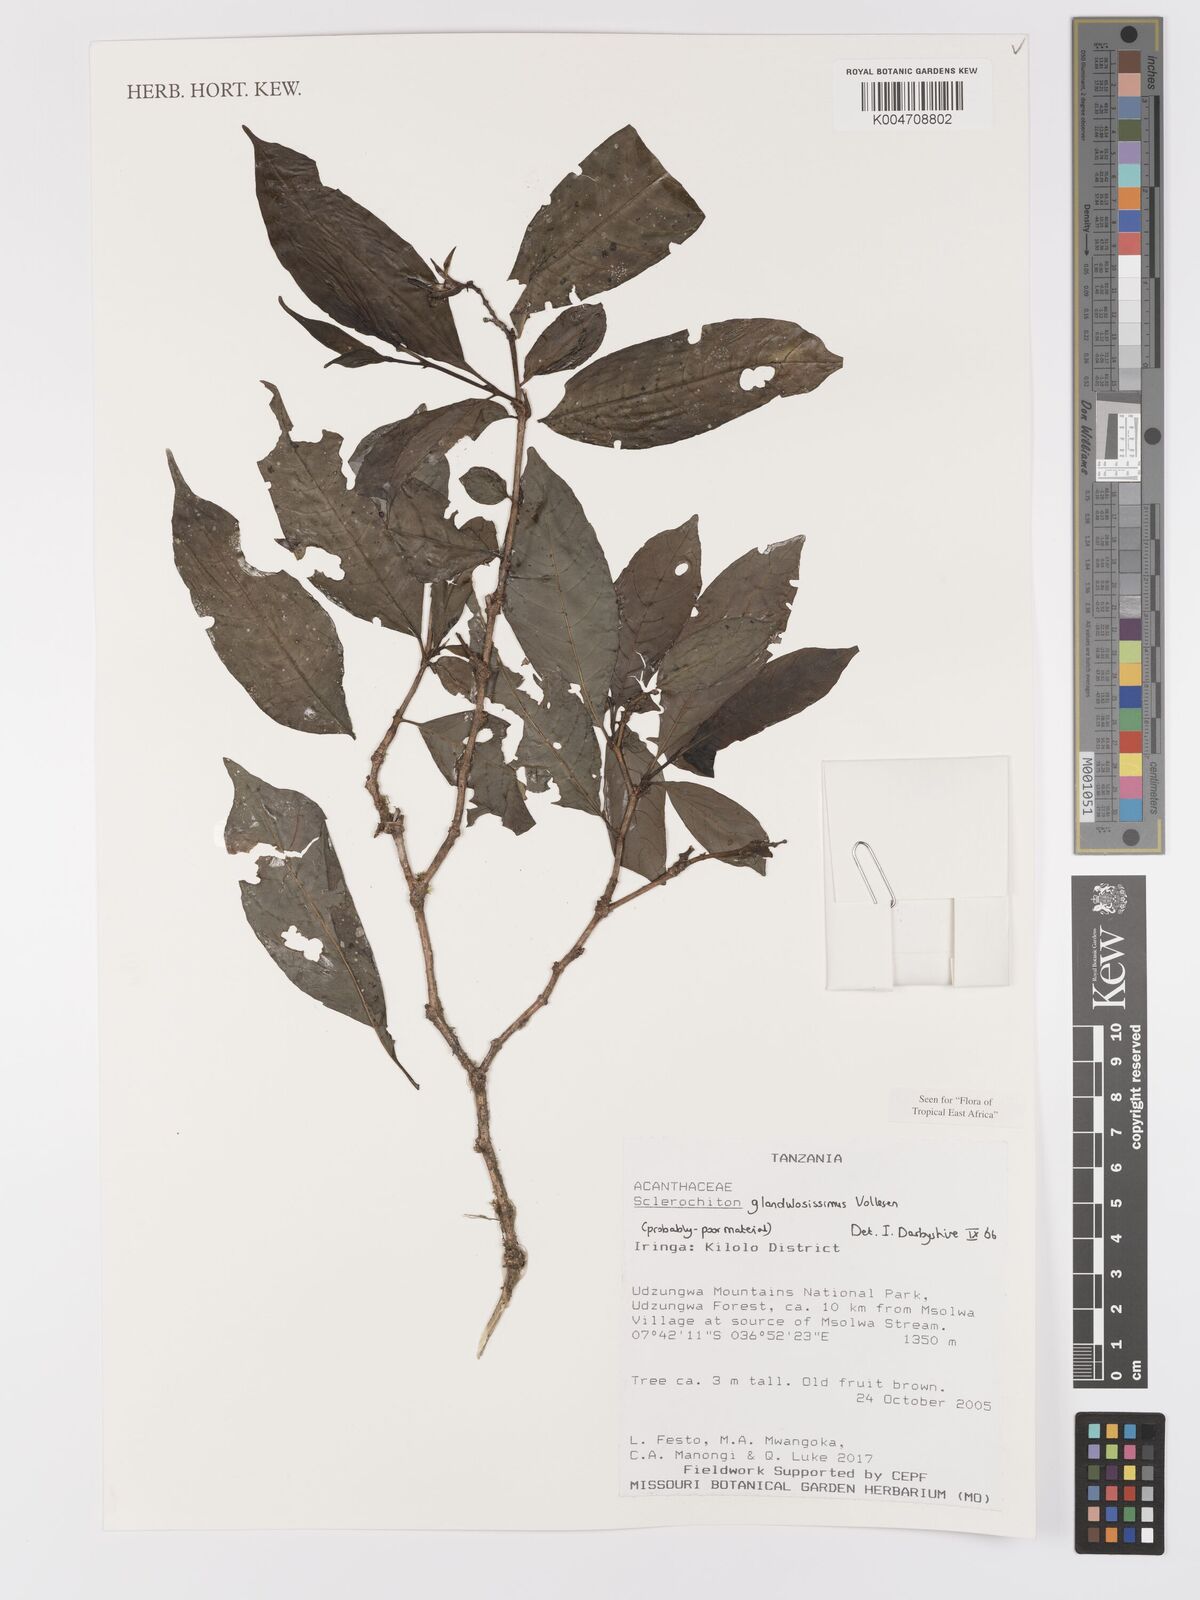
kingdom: Plantae
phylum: Tracheophyta
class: Magnoliopsida
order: Lamiales
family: Acanthaceae
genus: Sclerochiton
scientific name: Sclerochiton glandulosissimus
